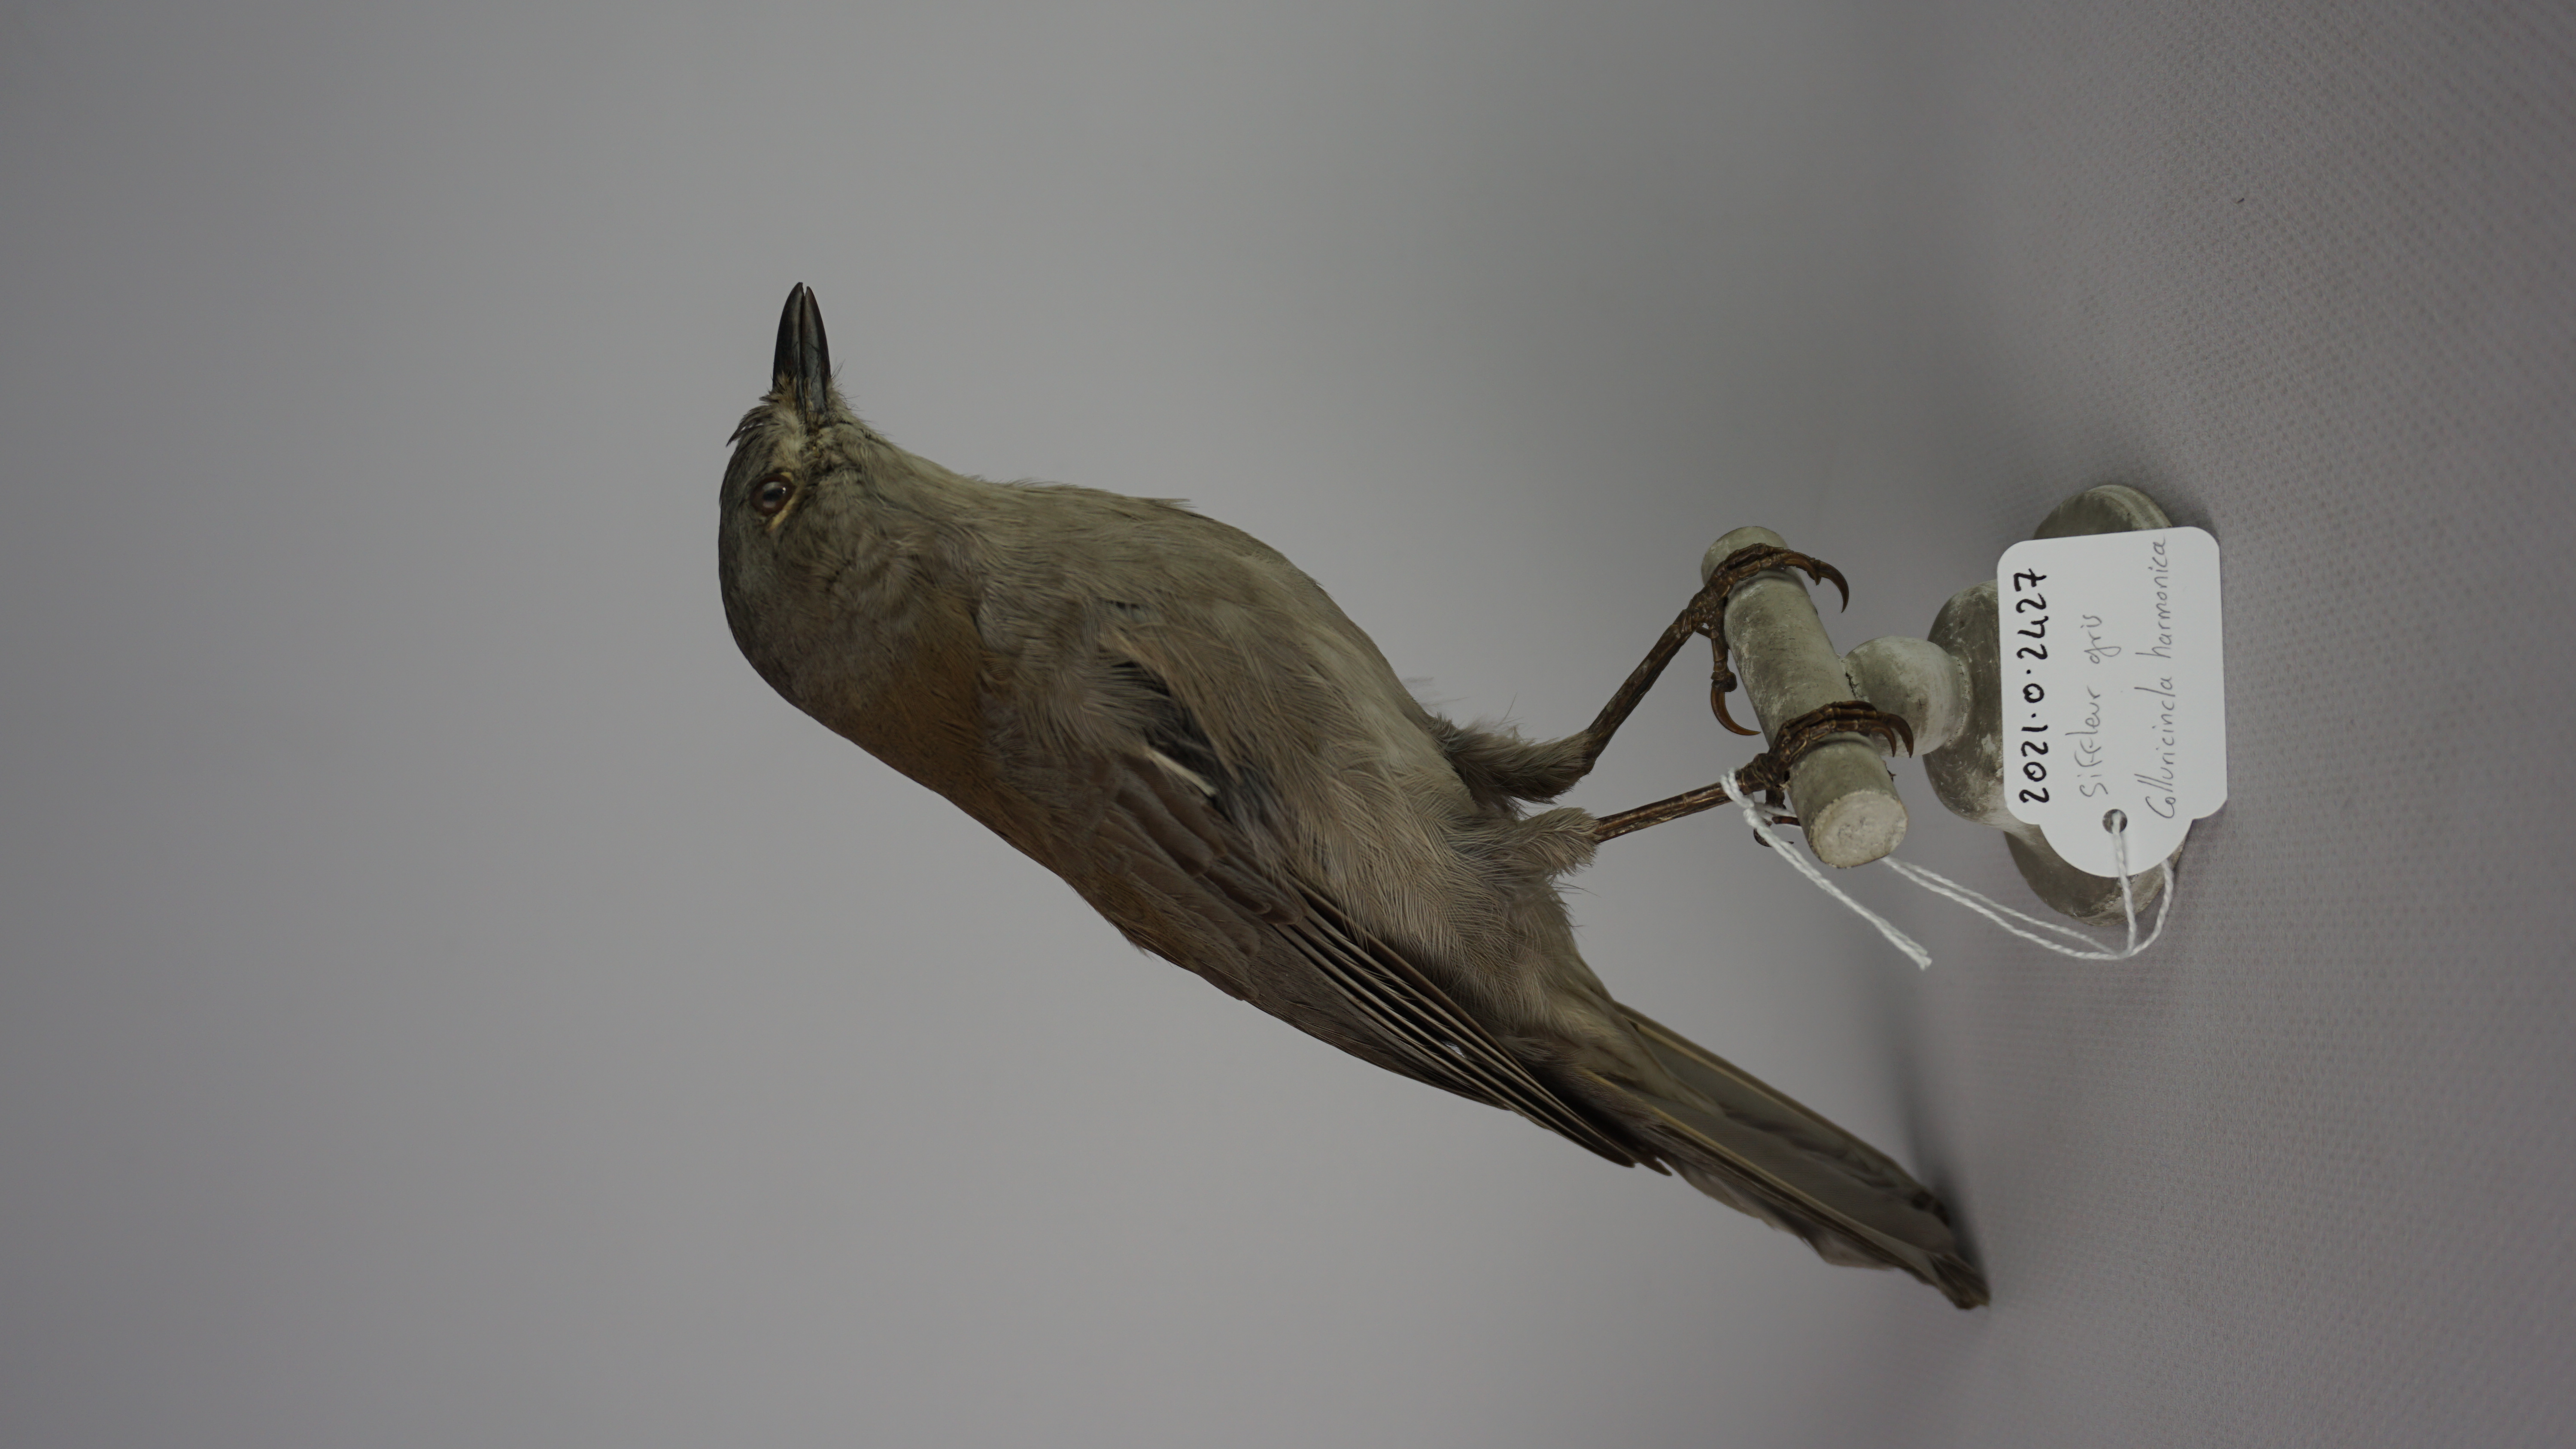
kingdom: Animalia
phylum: Chordata
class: Aves
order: Passeriformes
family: Pachycephalidae
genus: Colluricincla
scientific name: Colluricincla harmonica
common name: Grey shrikethrush
